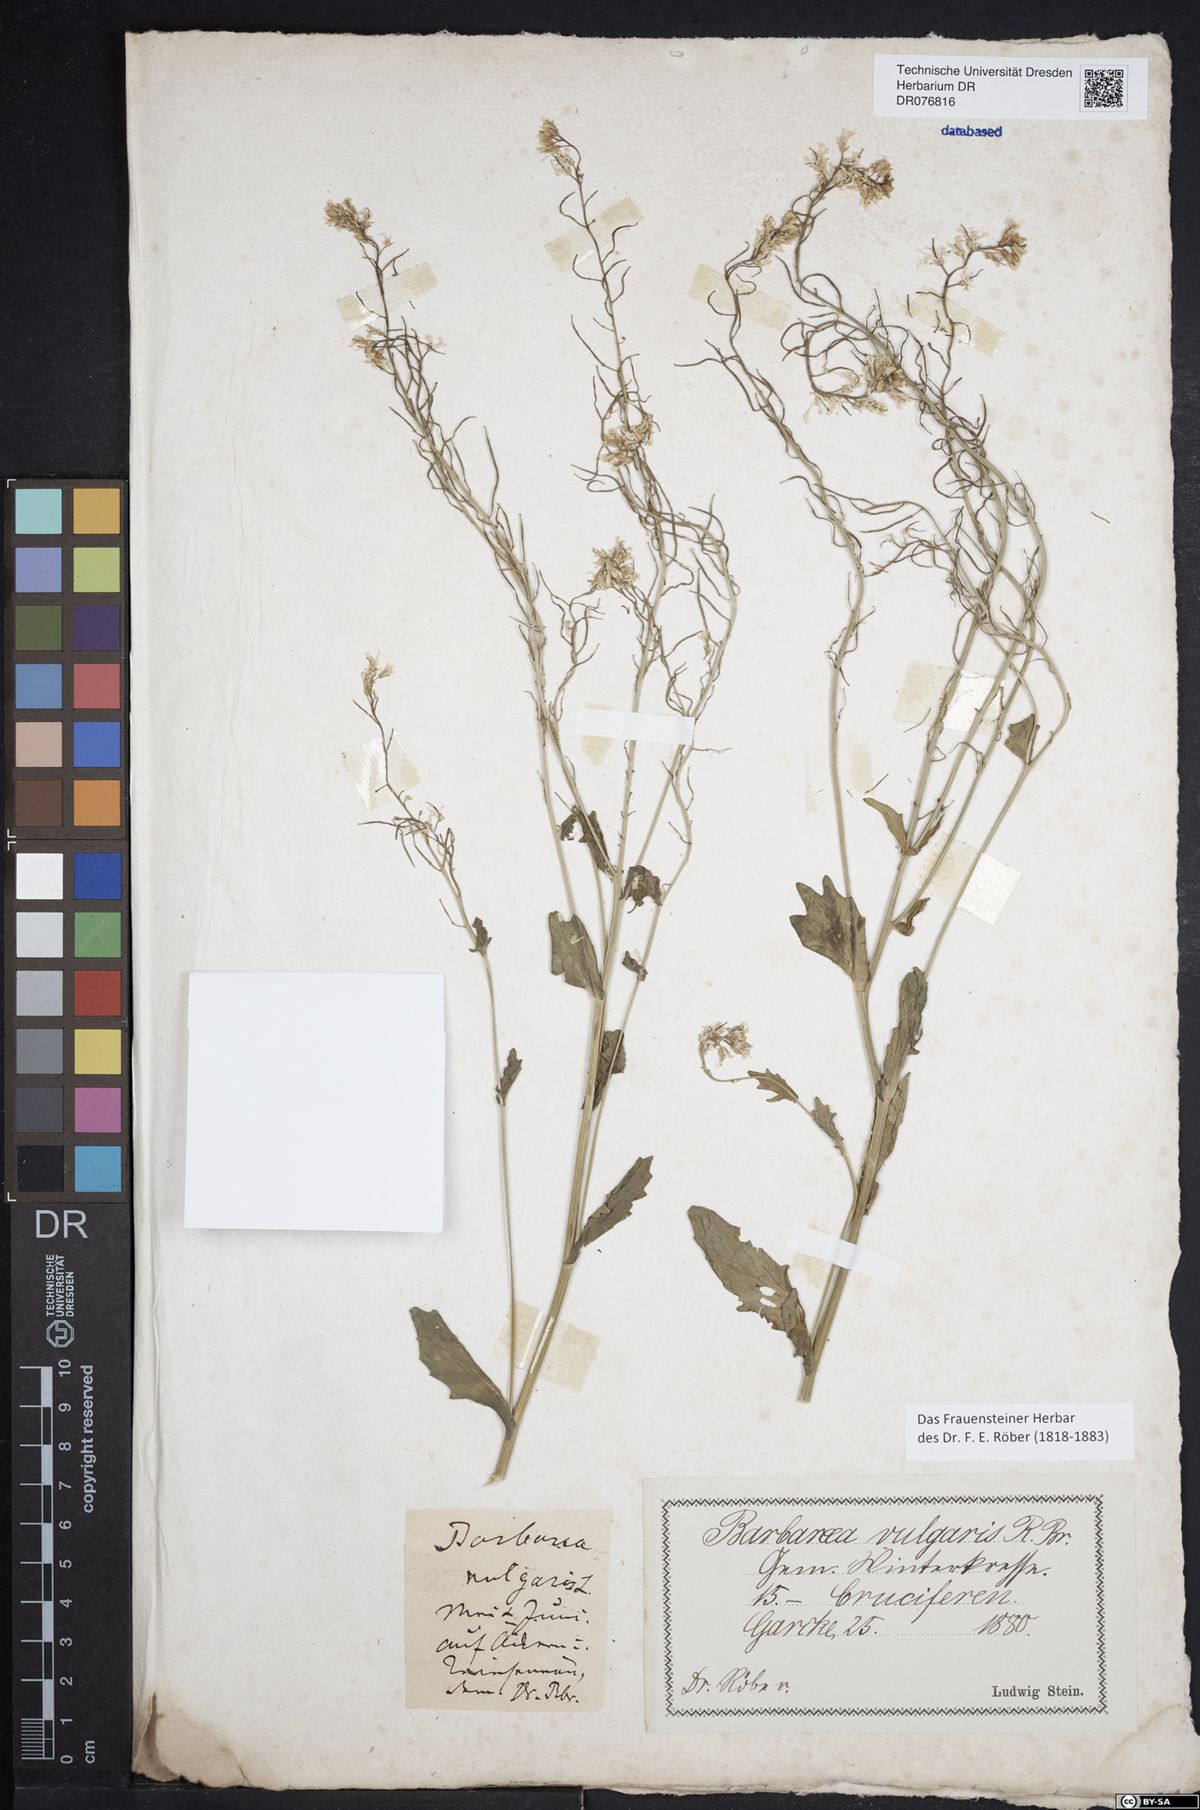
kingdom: Plantae
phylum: Tracheophyta
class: Magnoliopsida
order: Brassicales
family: Brassicaceae
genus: Barbarea
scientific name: Barbarea vulgaris
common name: Cressy-greens
